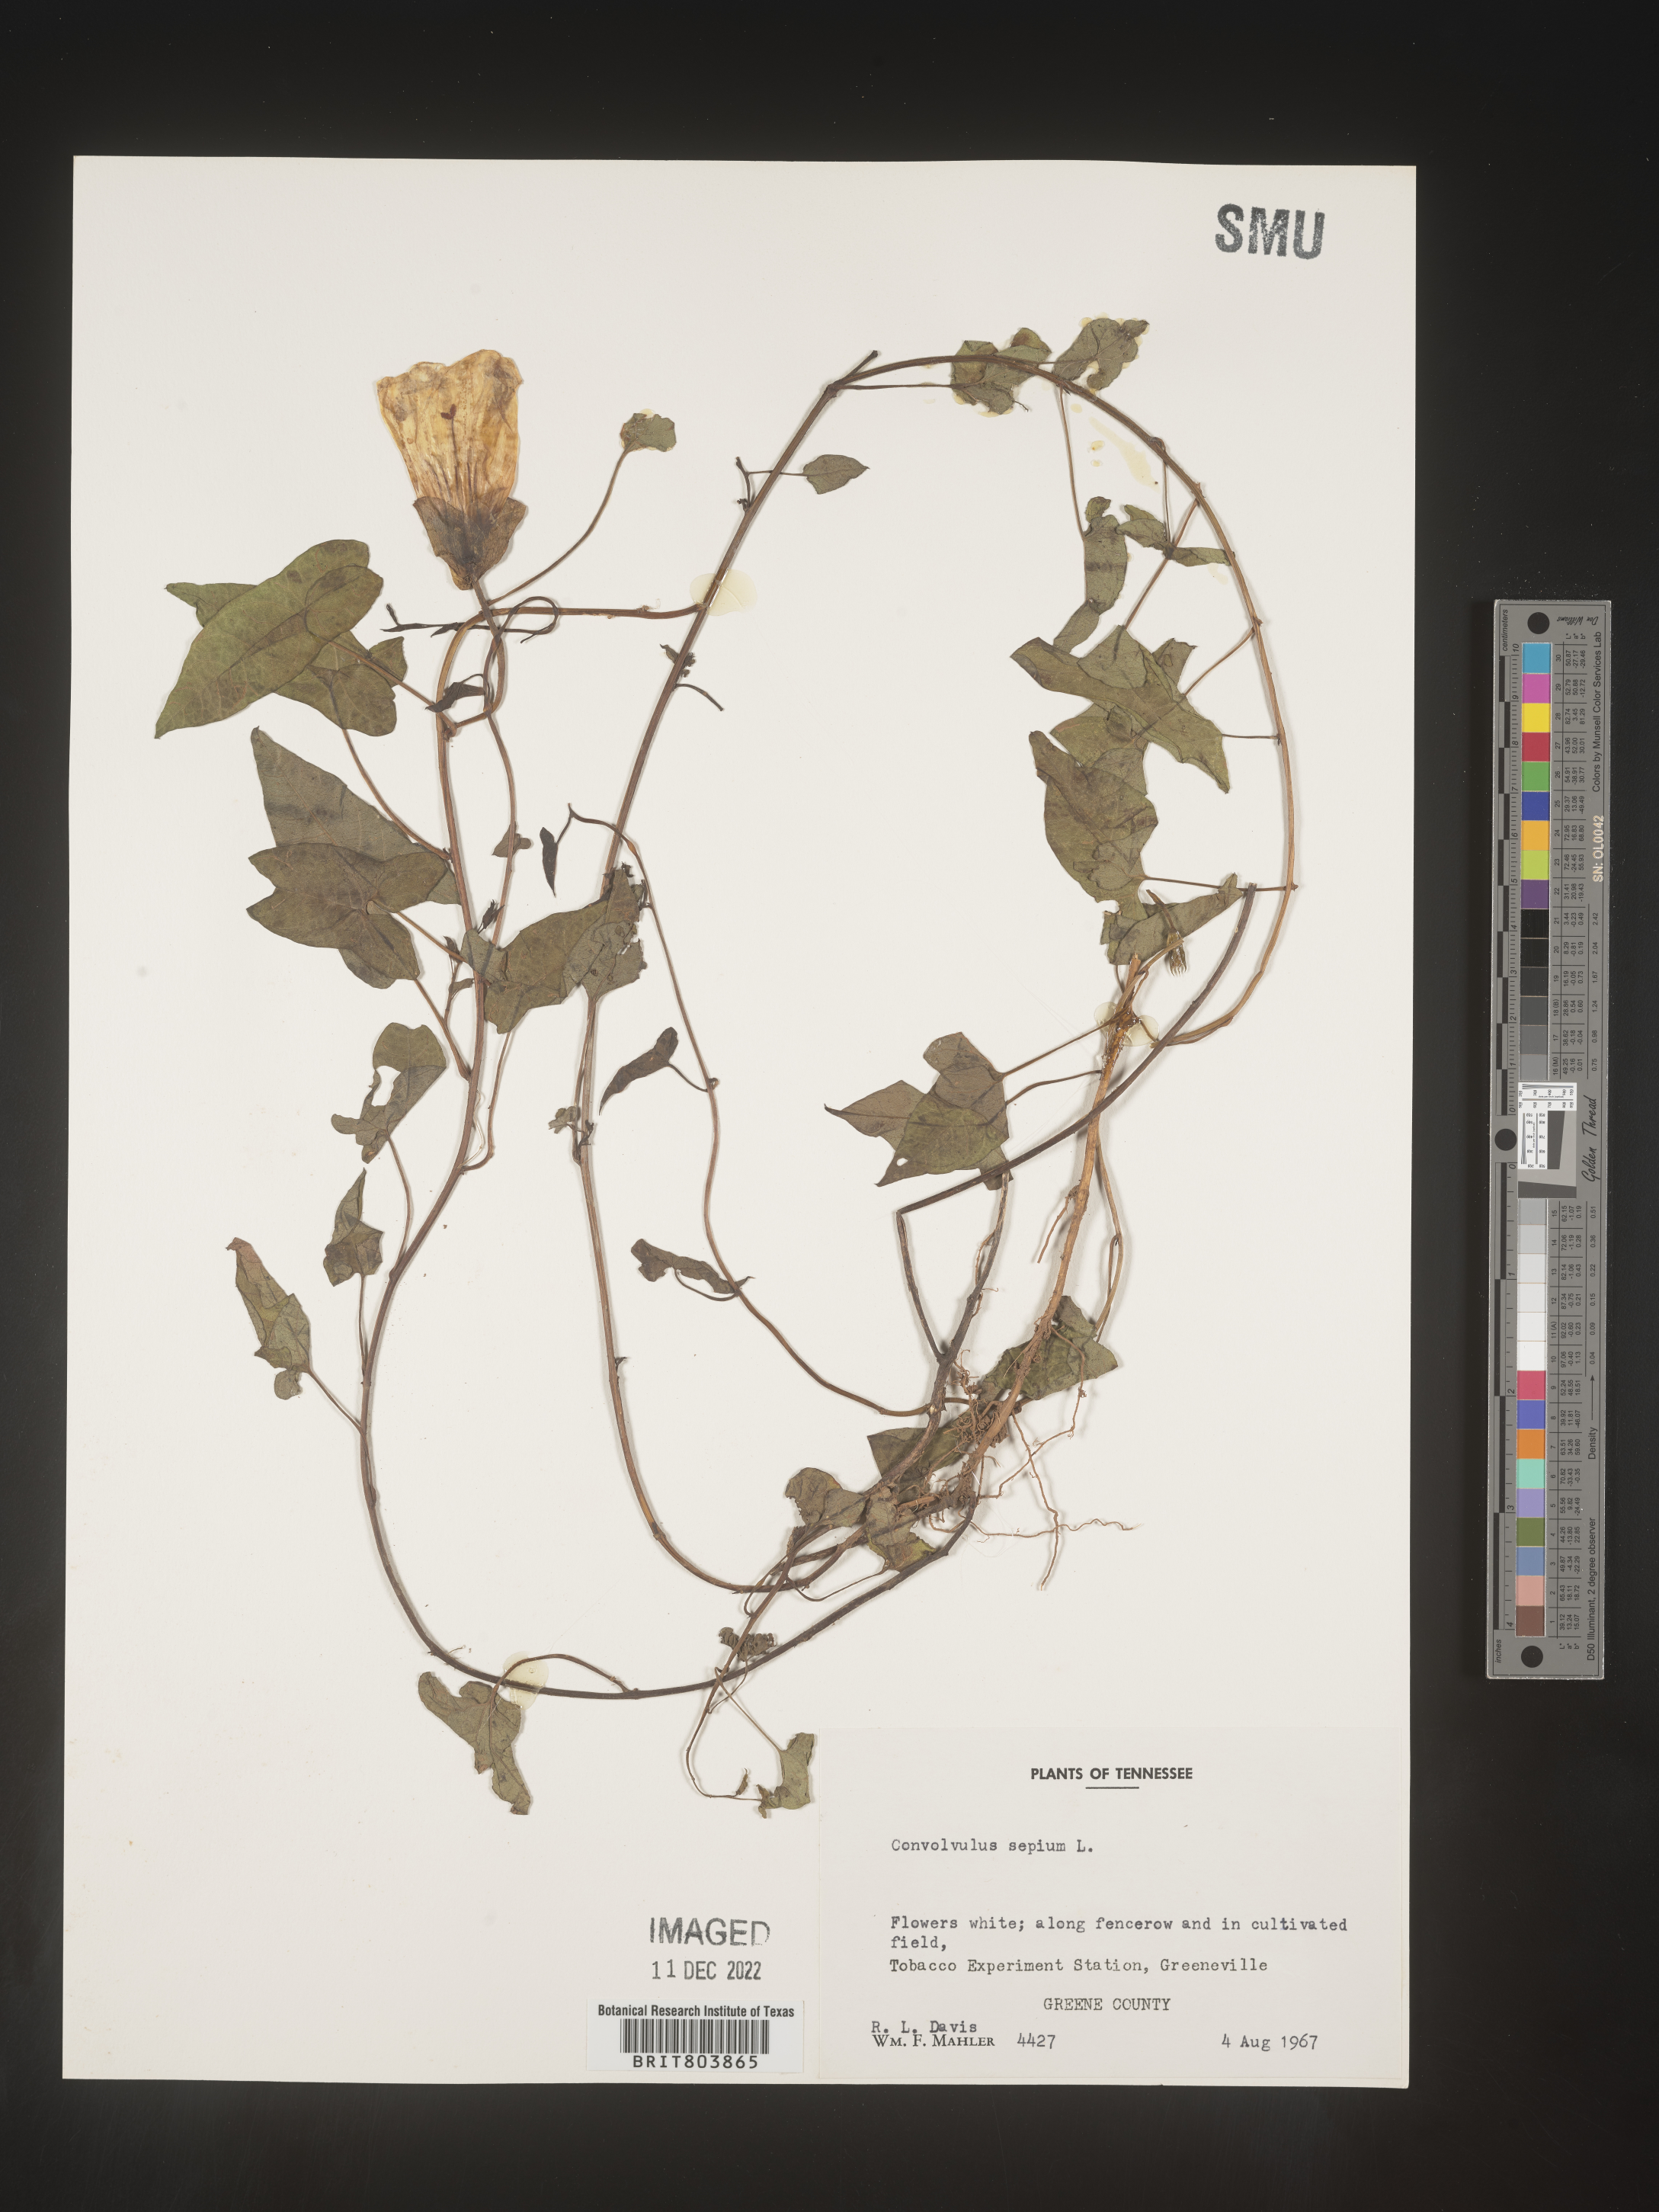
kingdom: Plantae
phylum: Tracheophyta
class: Magnoliopsida
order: Solanales
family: Convolvulaceae
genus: Calystegia
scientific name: Calystegia sepium
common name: Hedge bindweed
